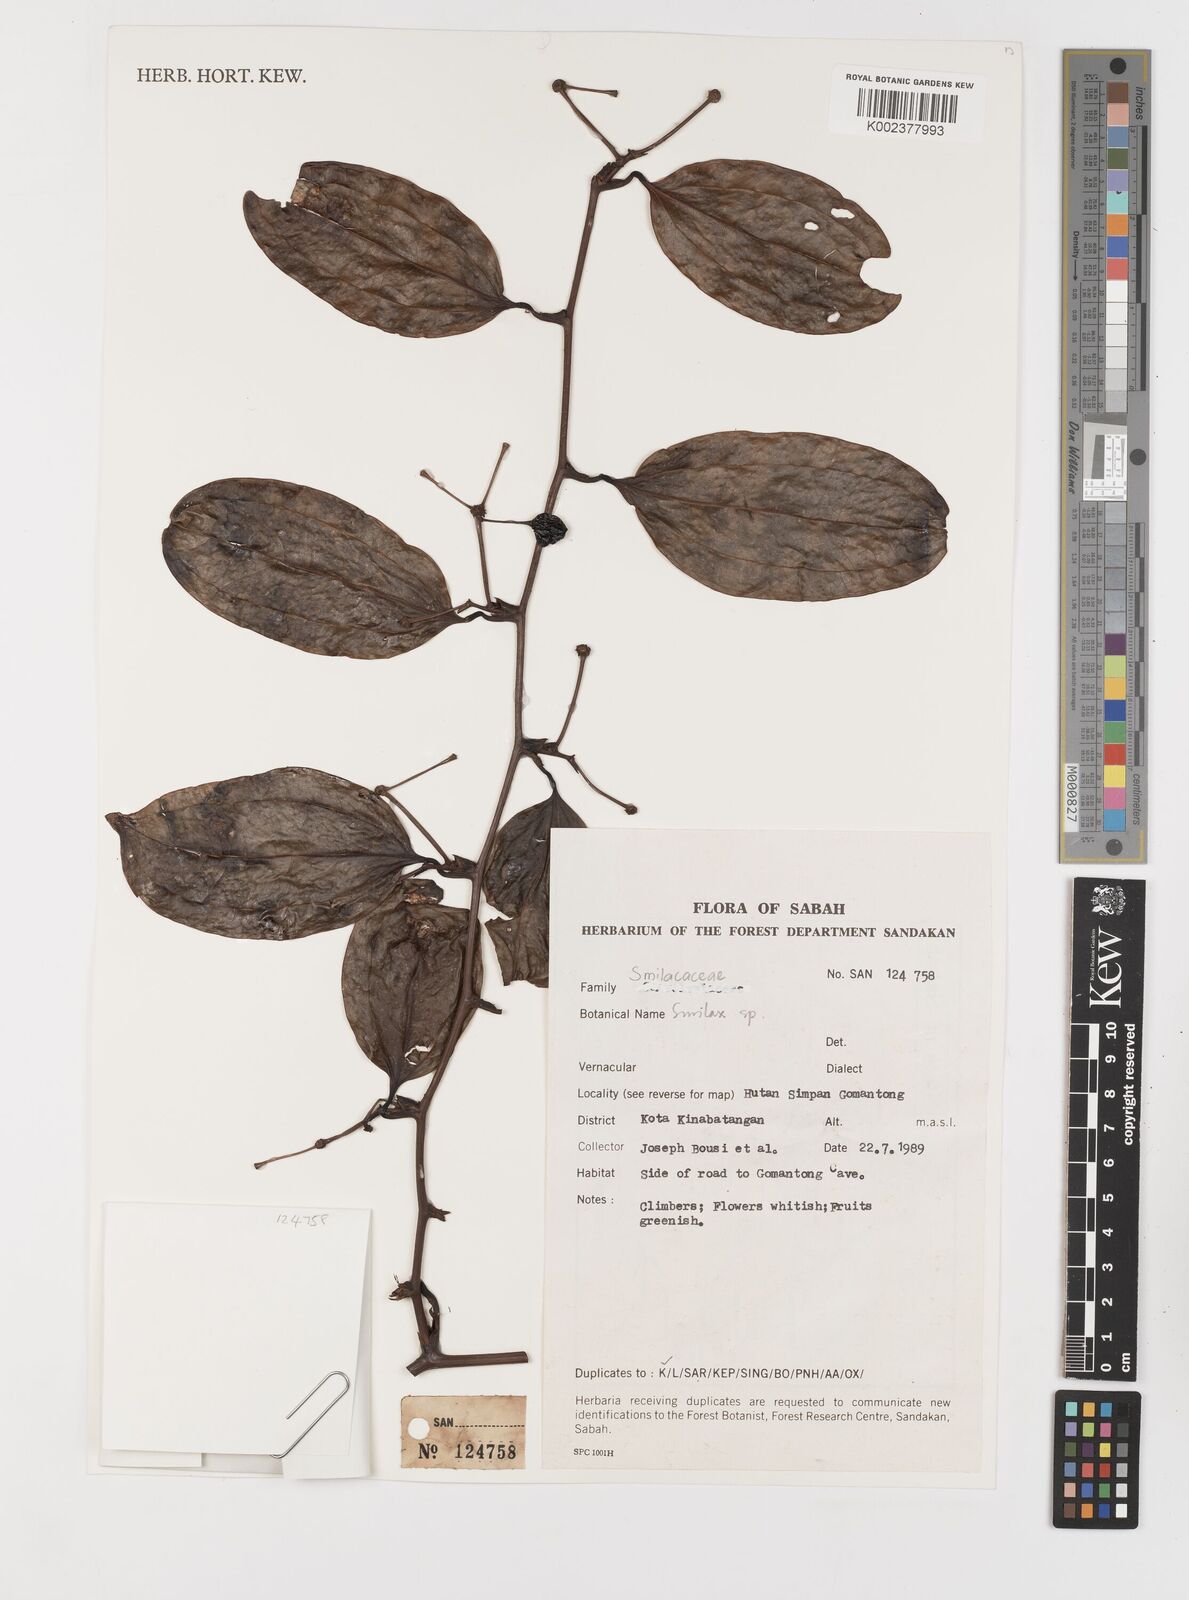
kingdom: Plantae
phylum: Tracheophyta
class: Liliopsida
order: Liliales
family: Smilacaceae
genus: Smilax
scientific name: Smilax
